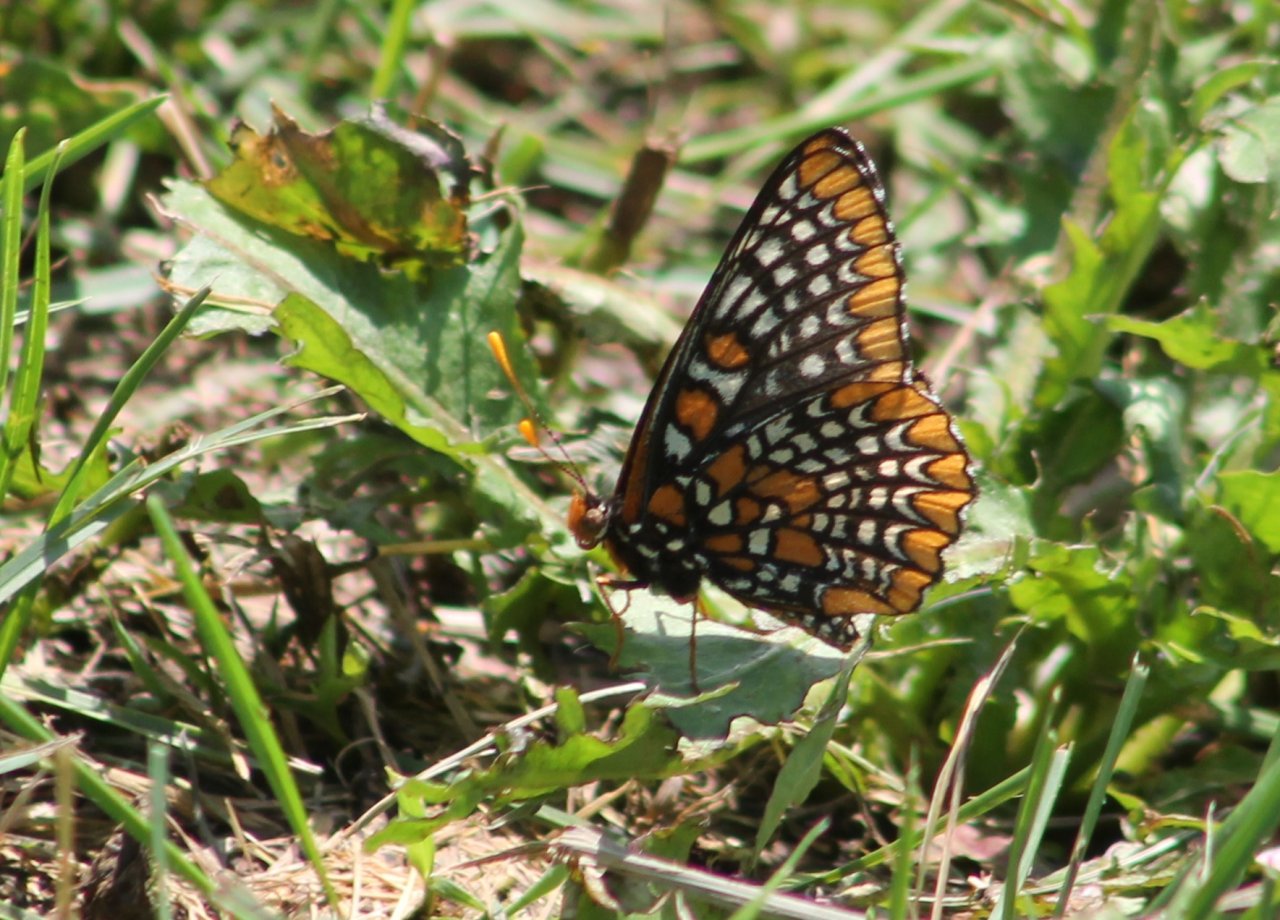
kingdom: Animalia
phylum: Arthropoda
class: Insecta
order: Lepidoptera
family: Nymphalidae
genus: Euphydryas
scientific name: Euphydryas phaeton
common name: Baltimore Checkerspot
